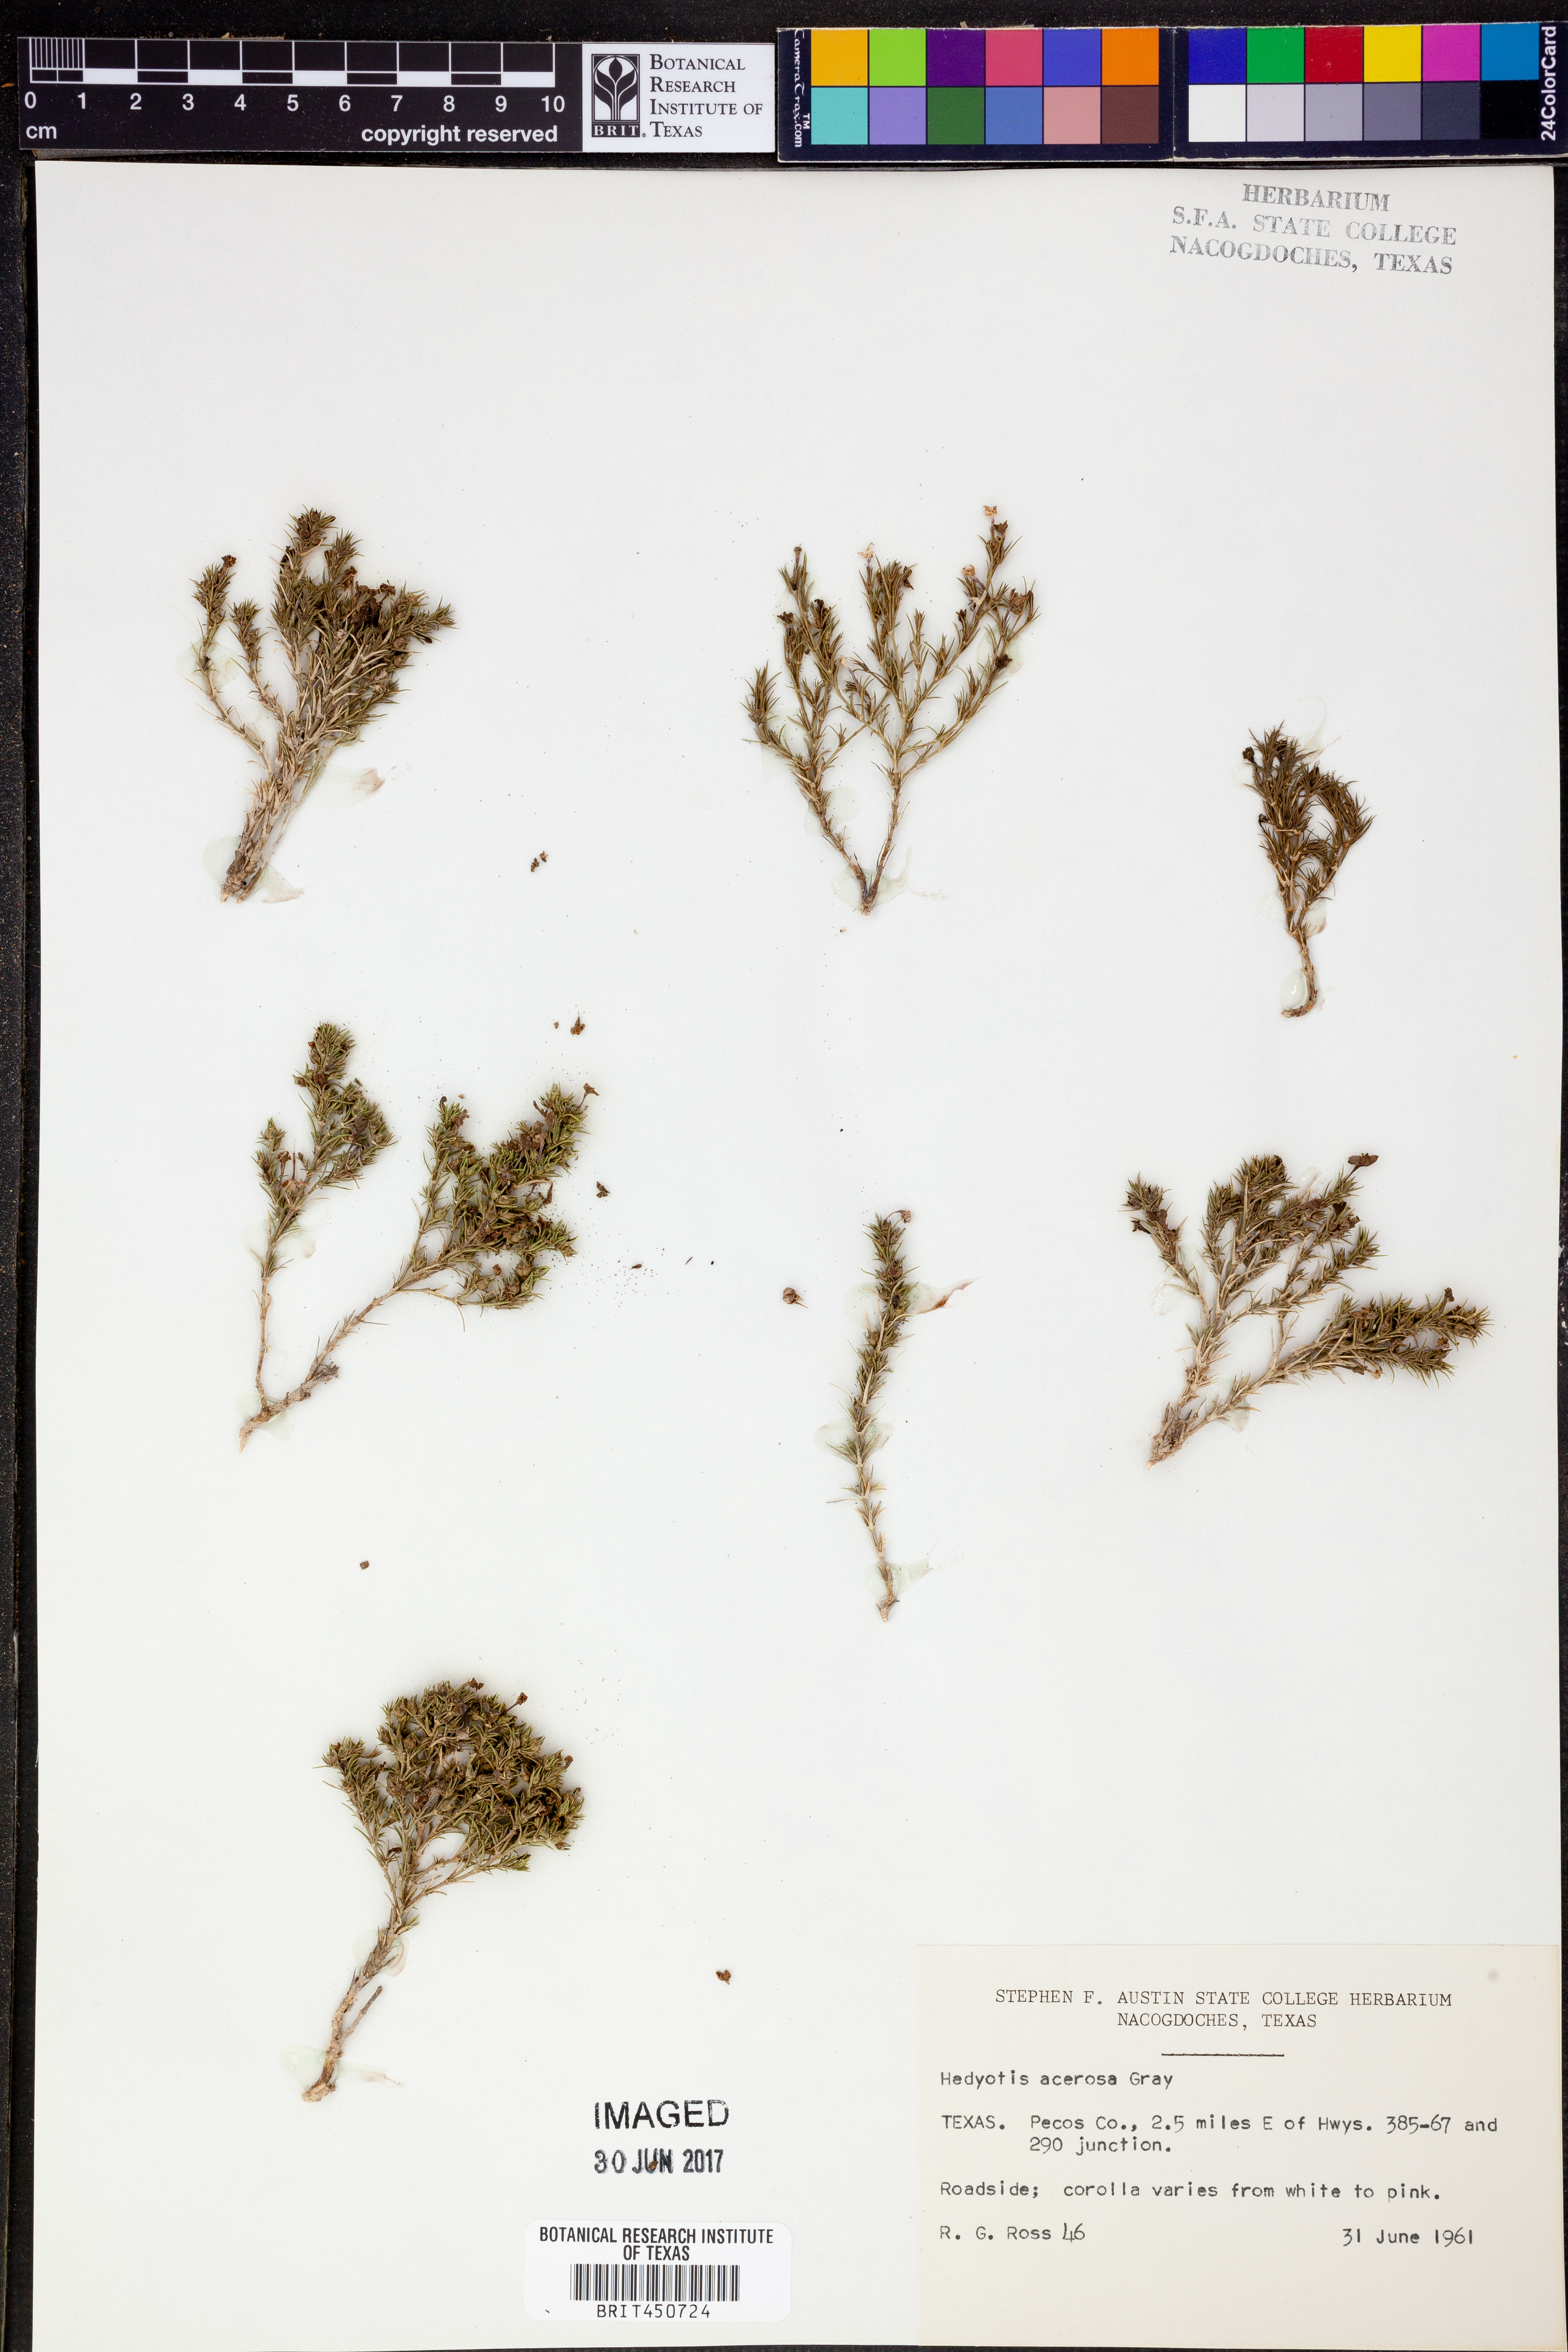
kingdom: Plantae
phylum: Tracheophyta
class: Magnoliopsida
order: Gentianales
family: Rubiaceae
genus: Houstonia
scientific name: Houstonia acerosa
